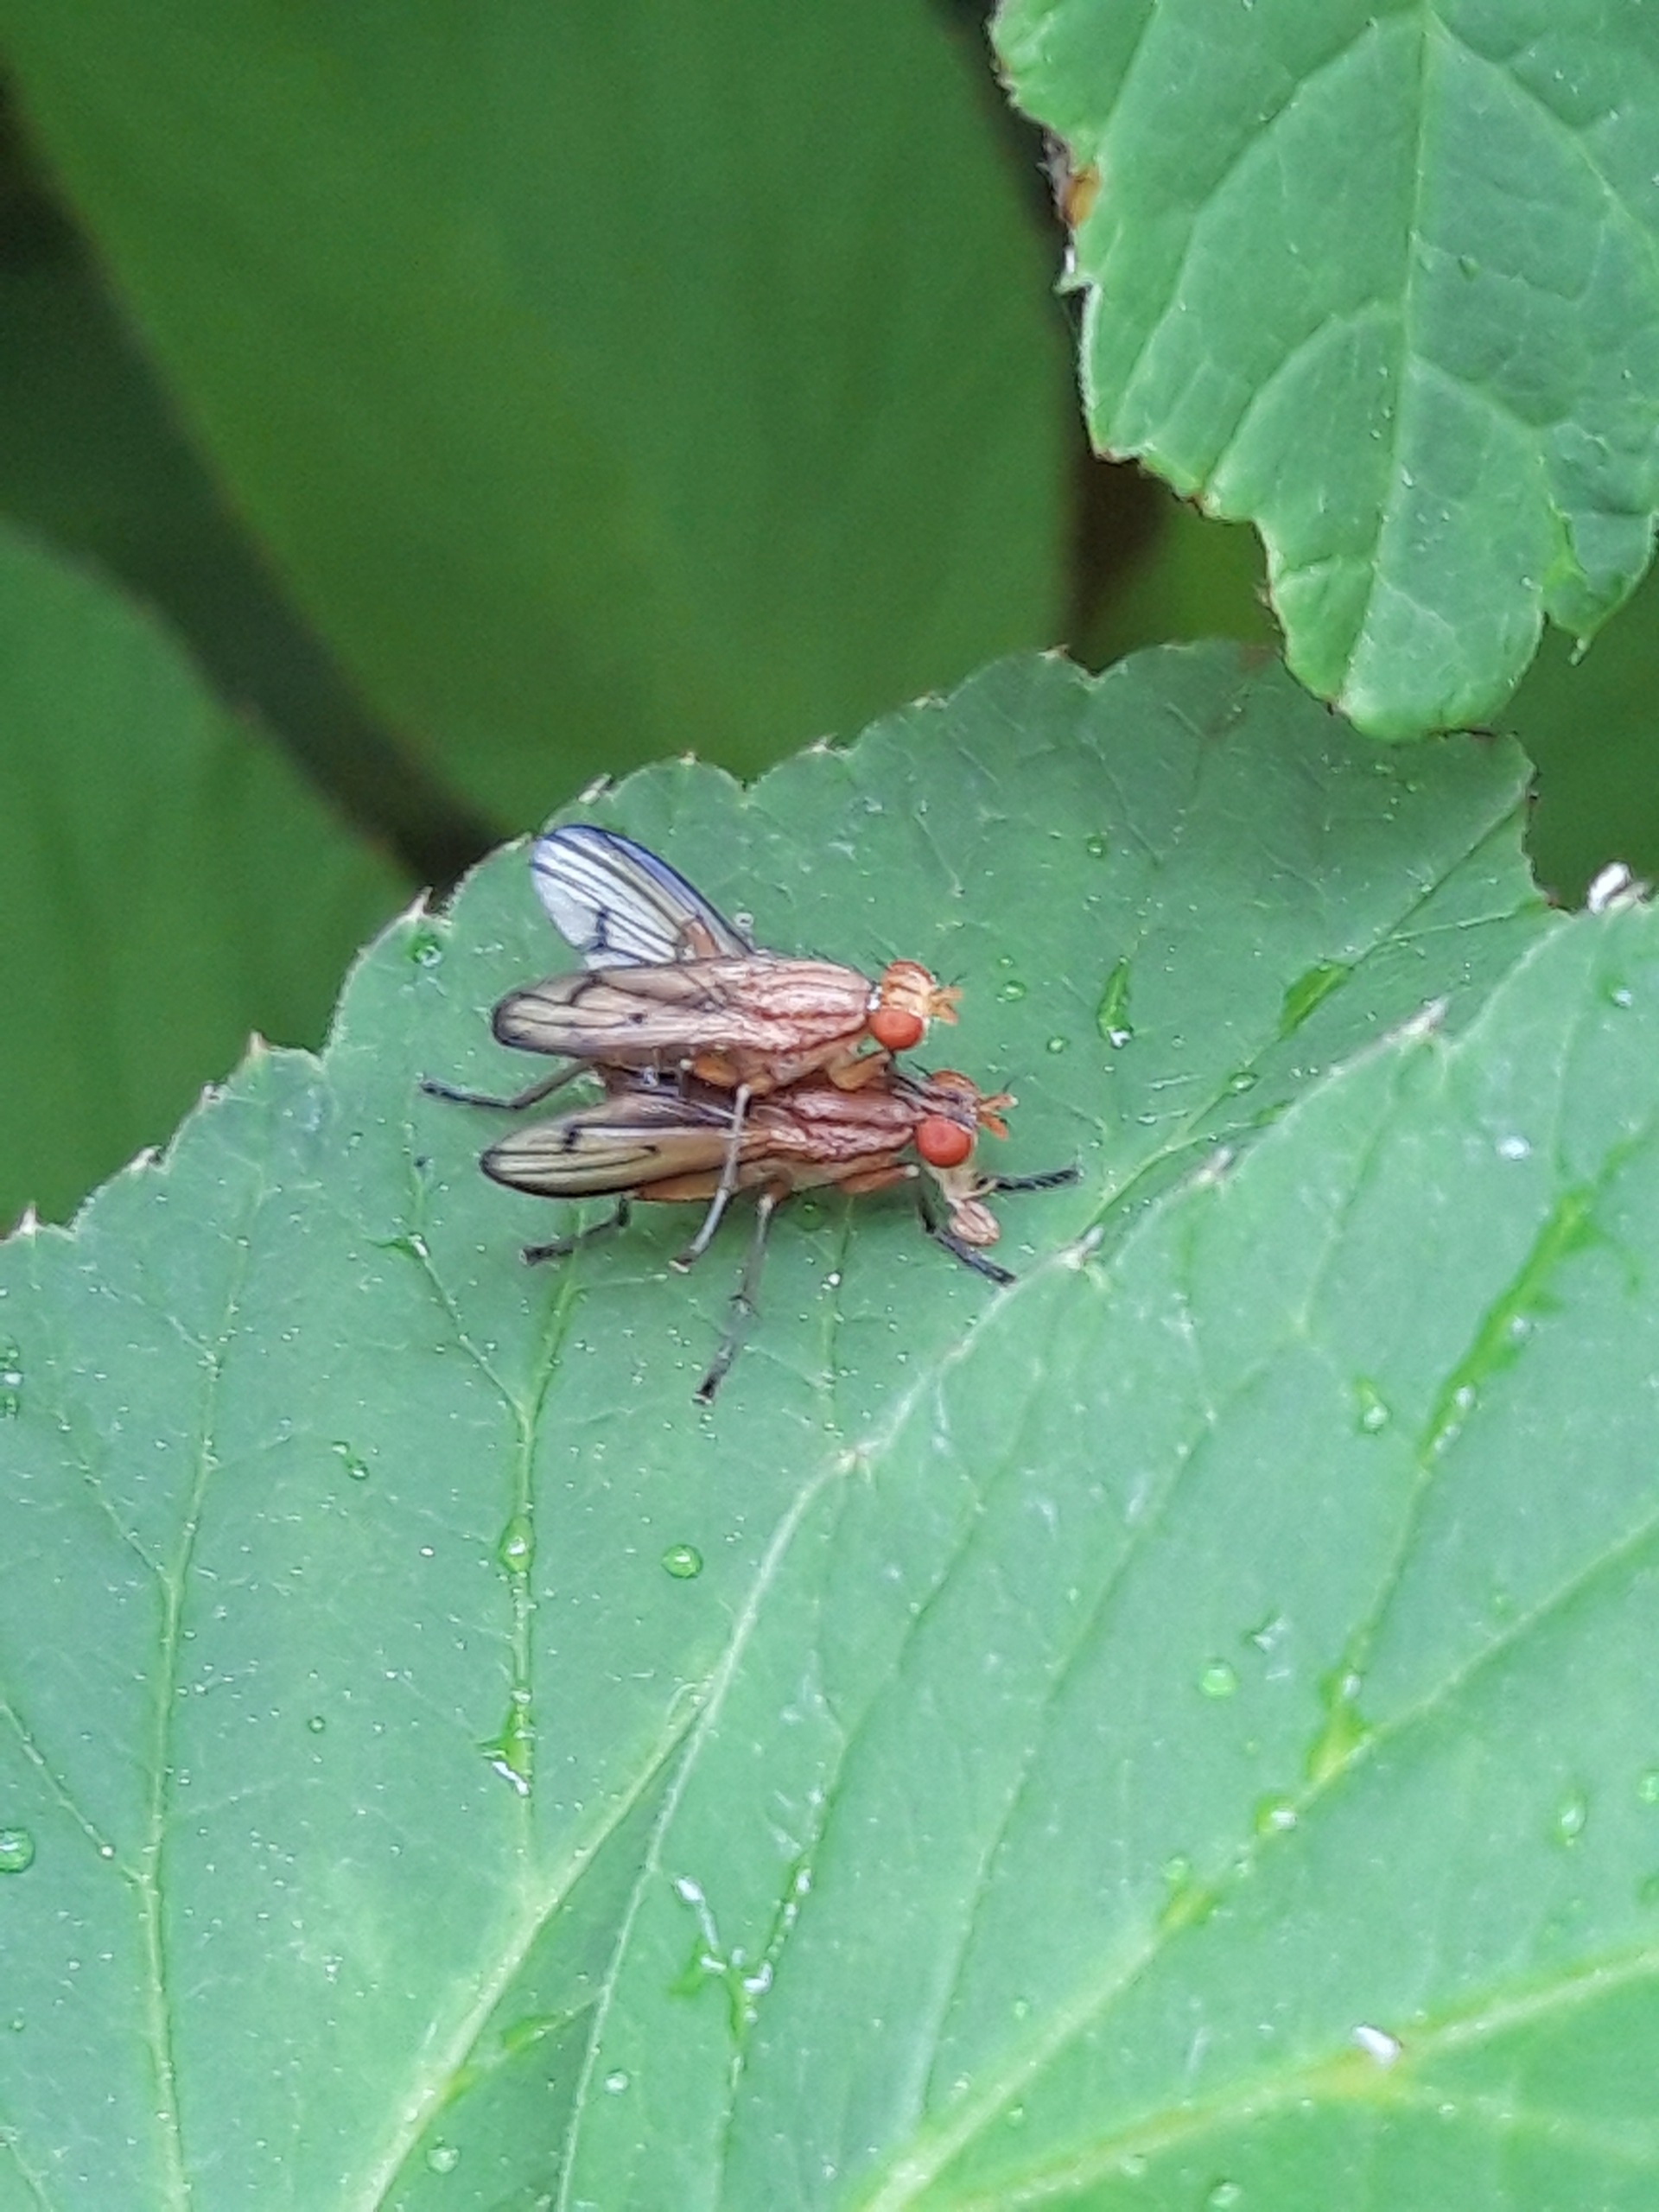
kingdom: Animalia
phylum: Arthropoda
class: Insecta
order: Diptera
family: Sciomyzidae
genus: Tetanocera
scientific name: Tetanocera
